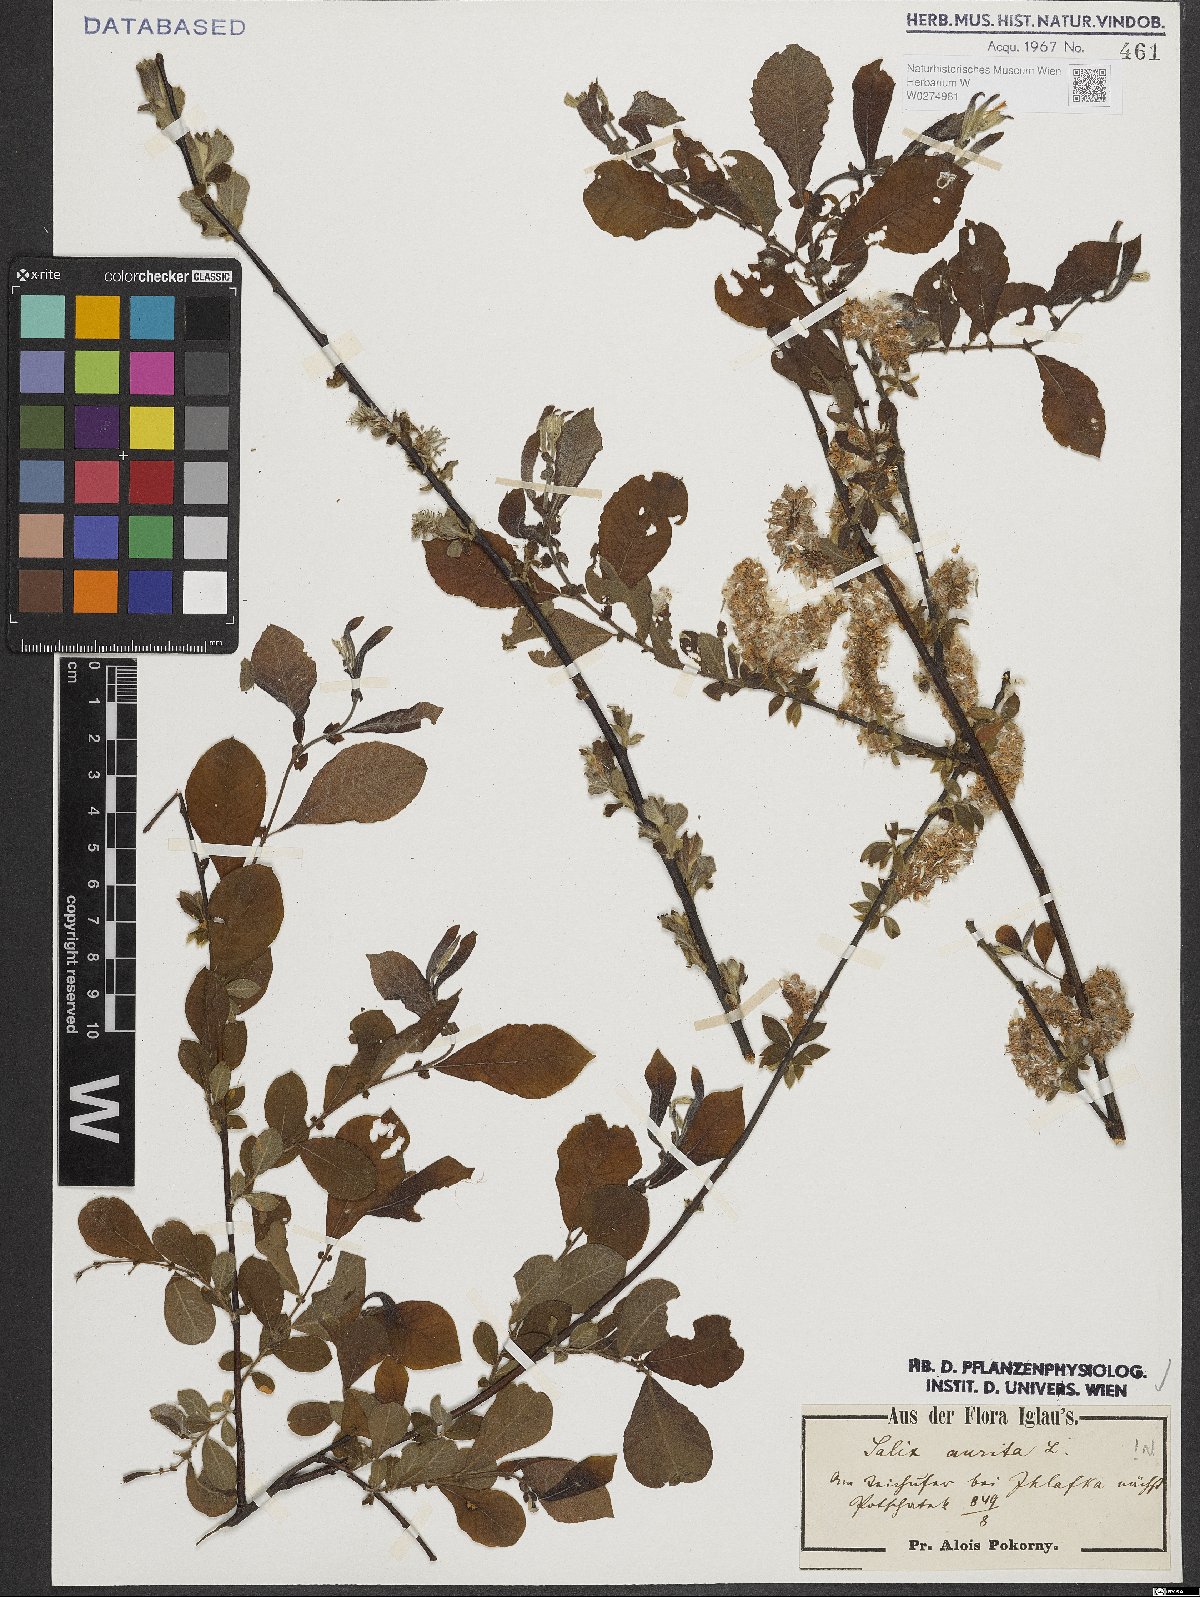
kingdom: Plantae
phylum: Tracheophyta
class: Magnoliopsida
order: Malpighiales
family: Salicaceae
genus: Salix
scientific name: Salix aurita
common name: Eared willow
